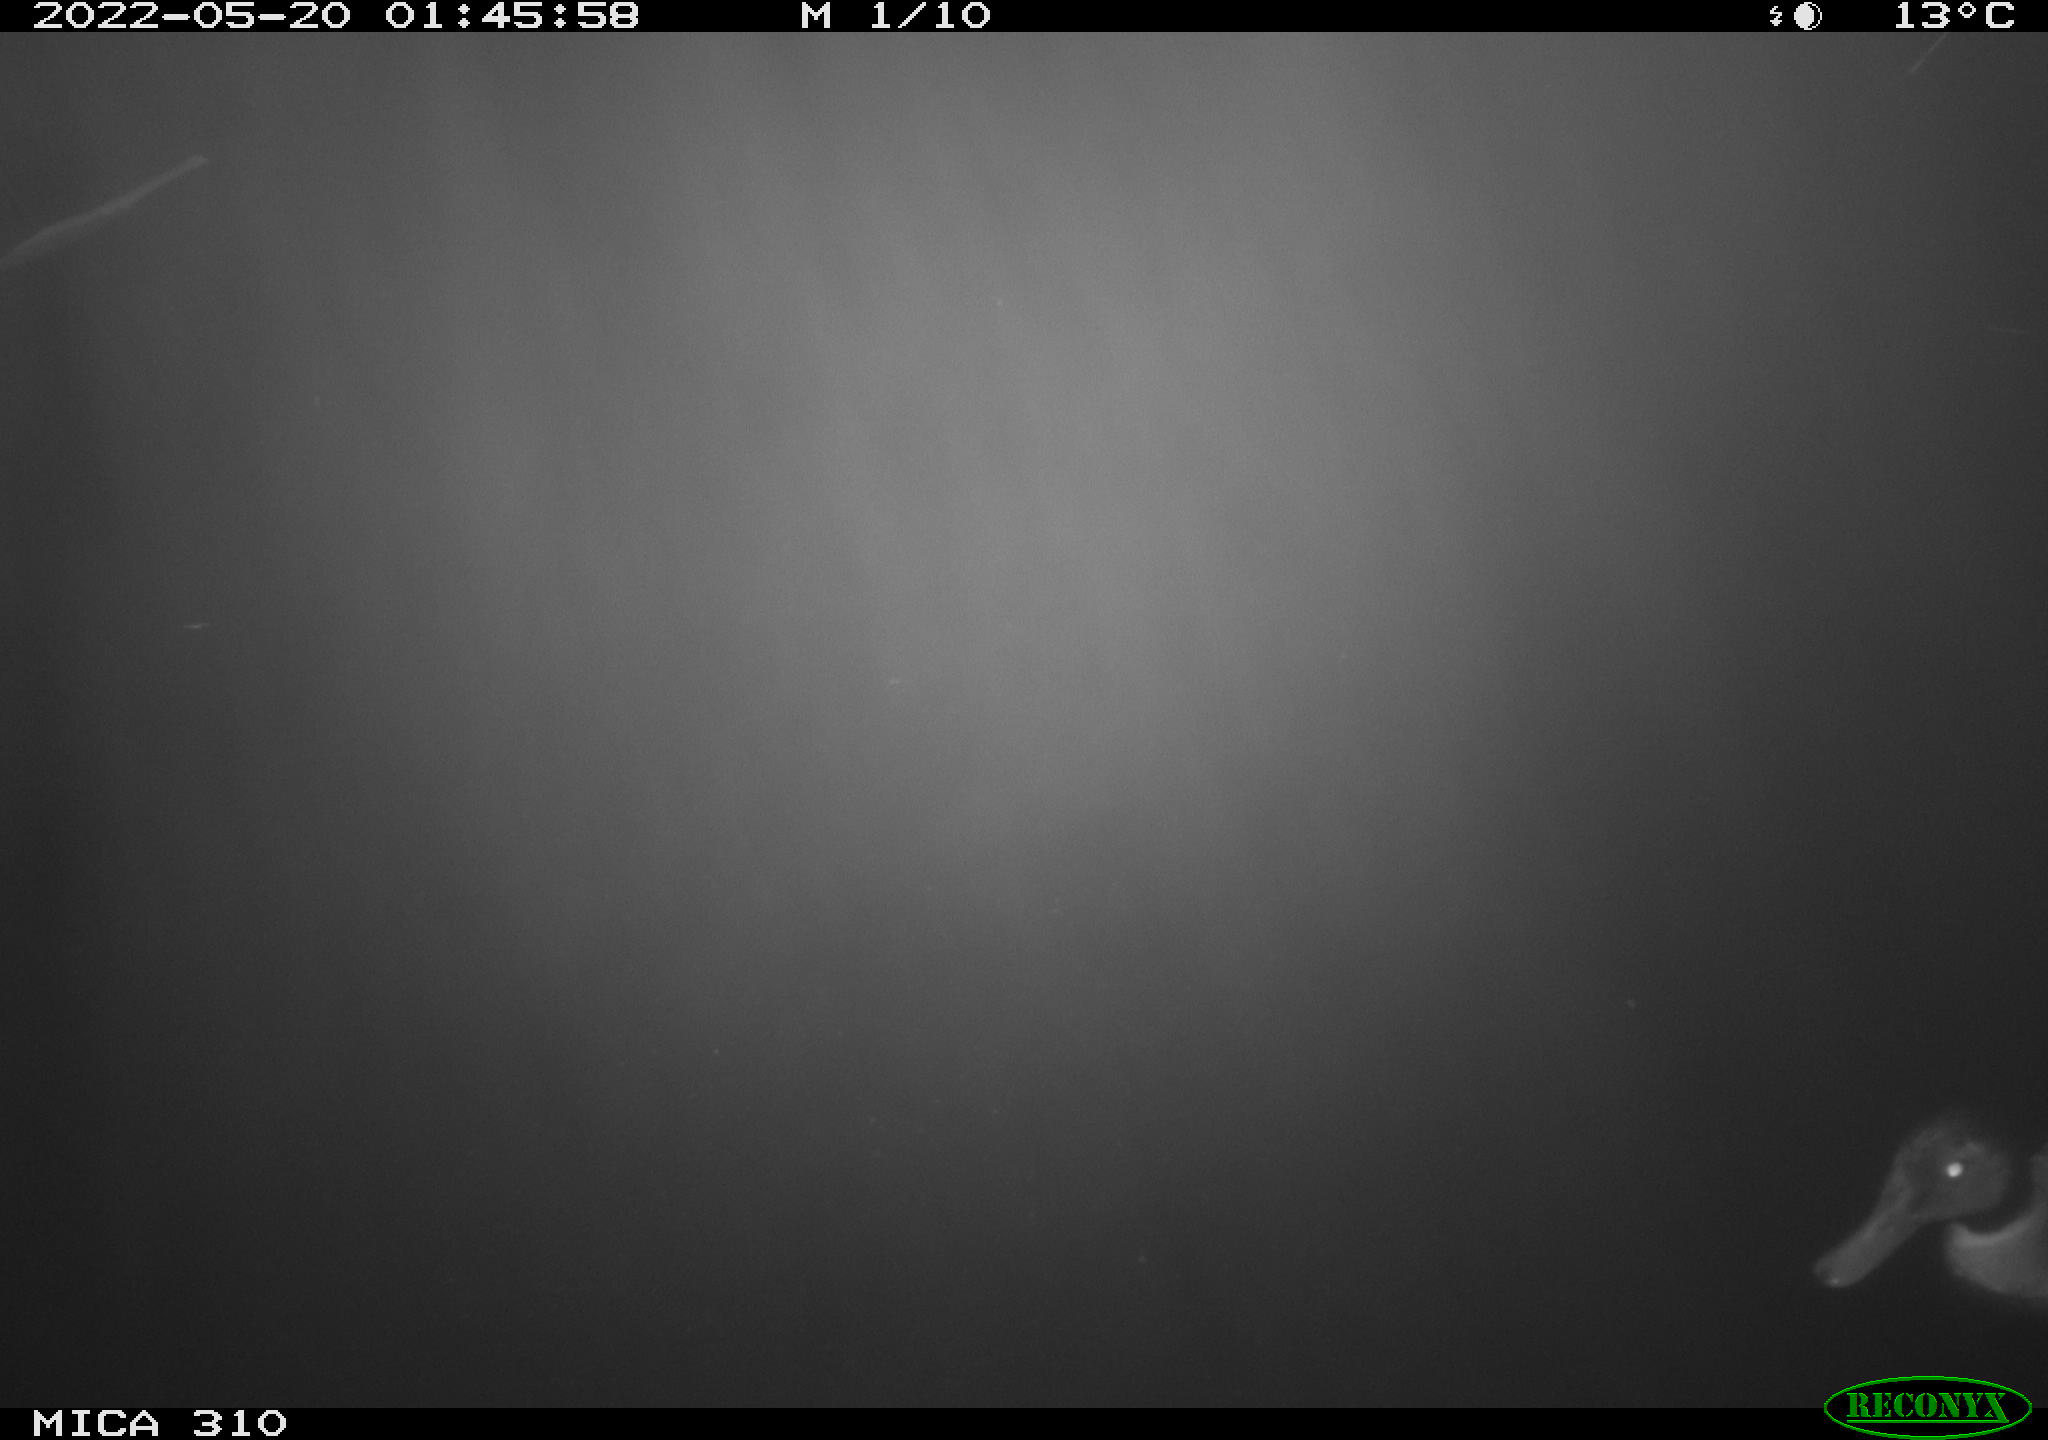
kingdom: Animalia
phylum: Chordata
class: Aves
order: Anseriformes
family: Anatidae
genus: Anas
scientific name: Anas platyrhynchos
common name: Mallard
